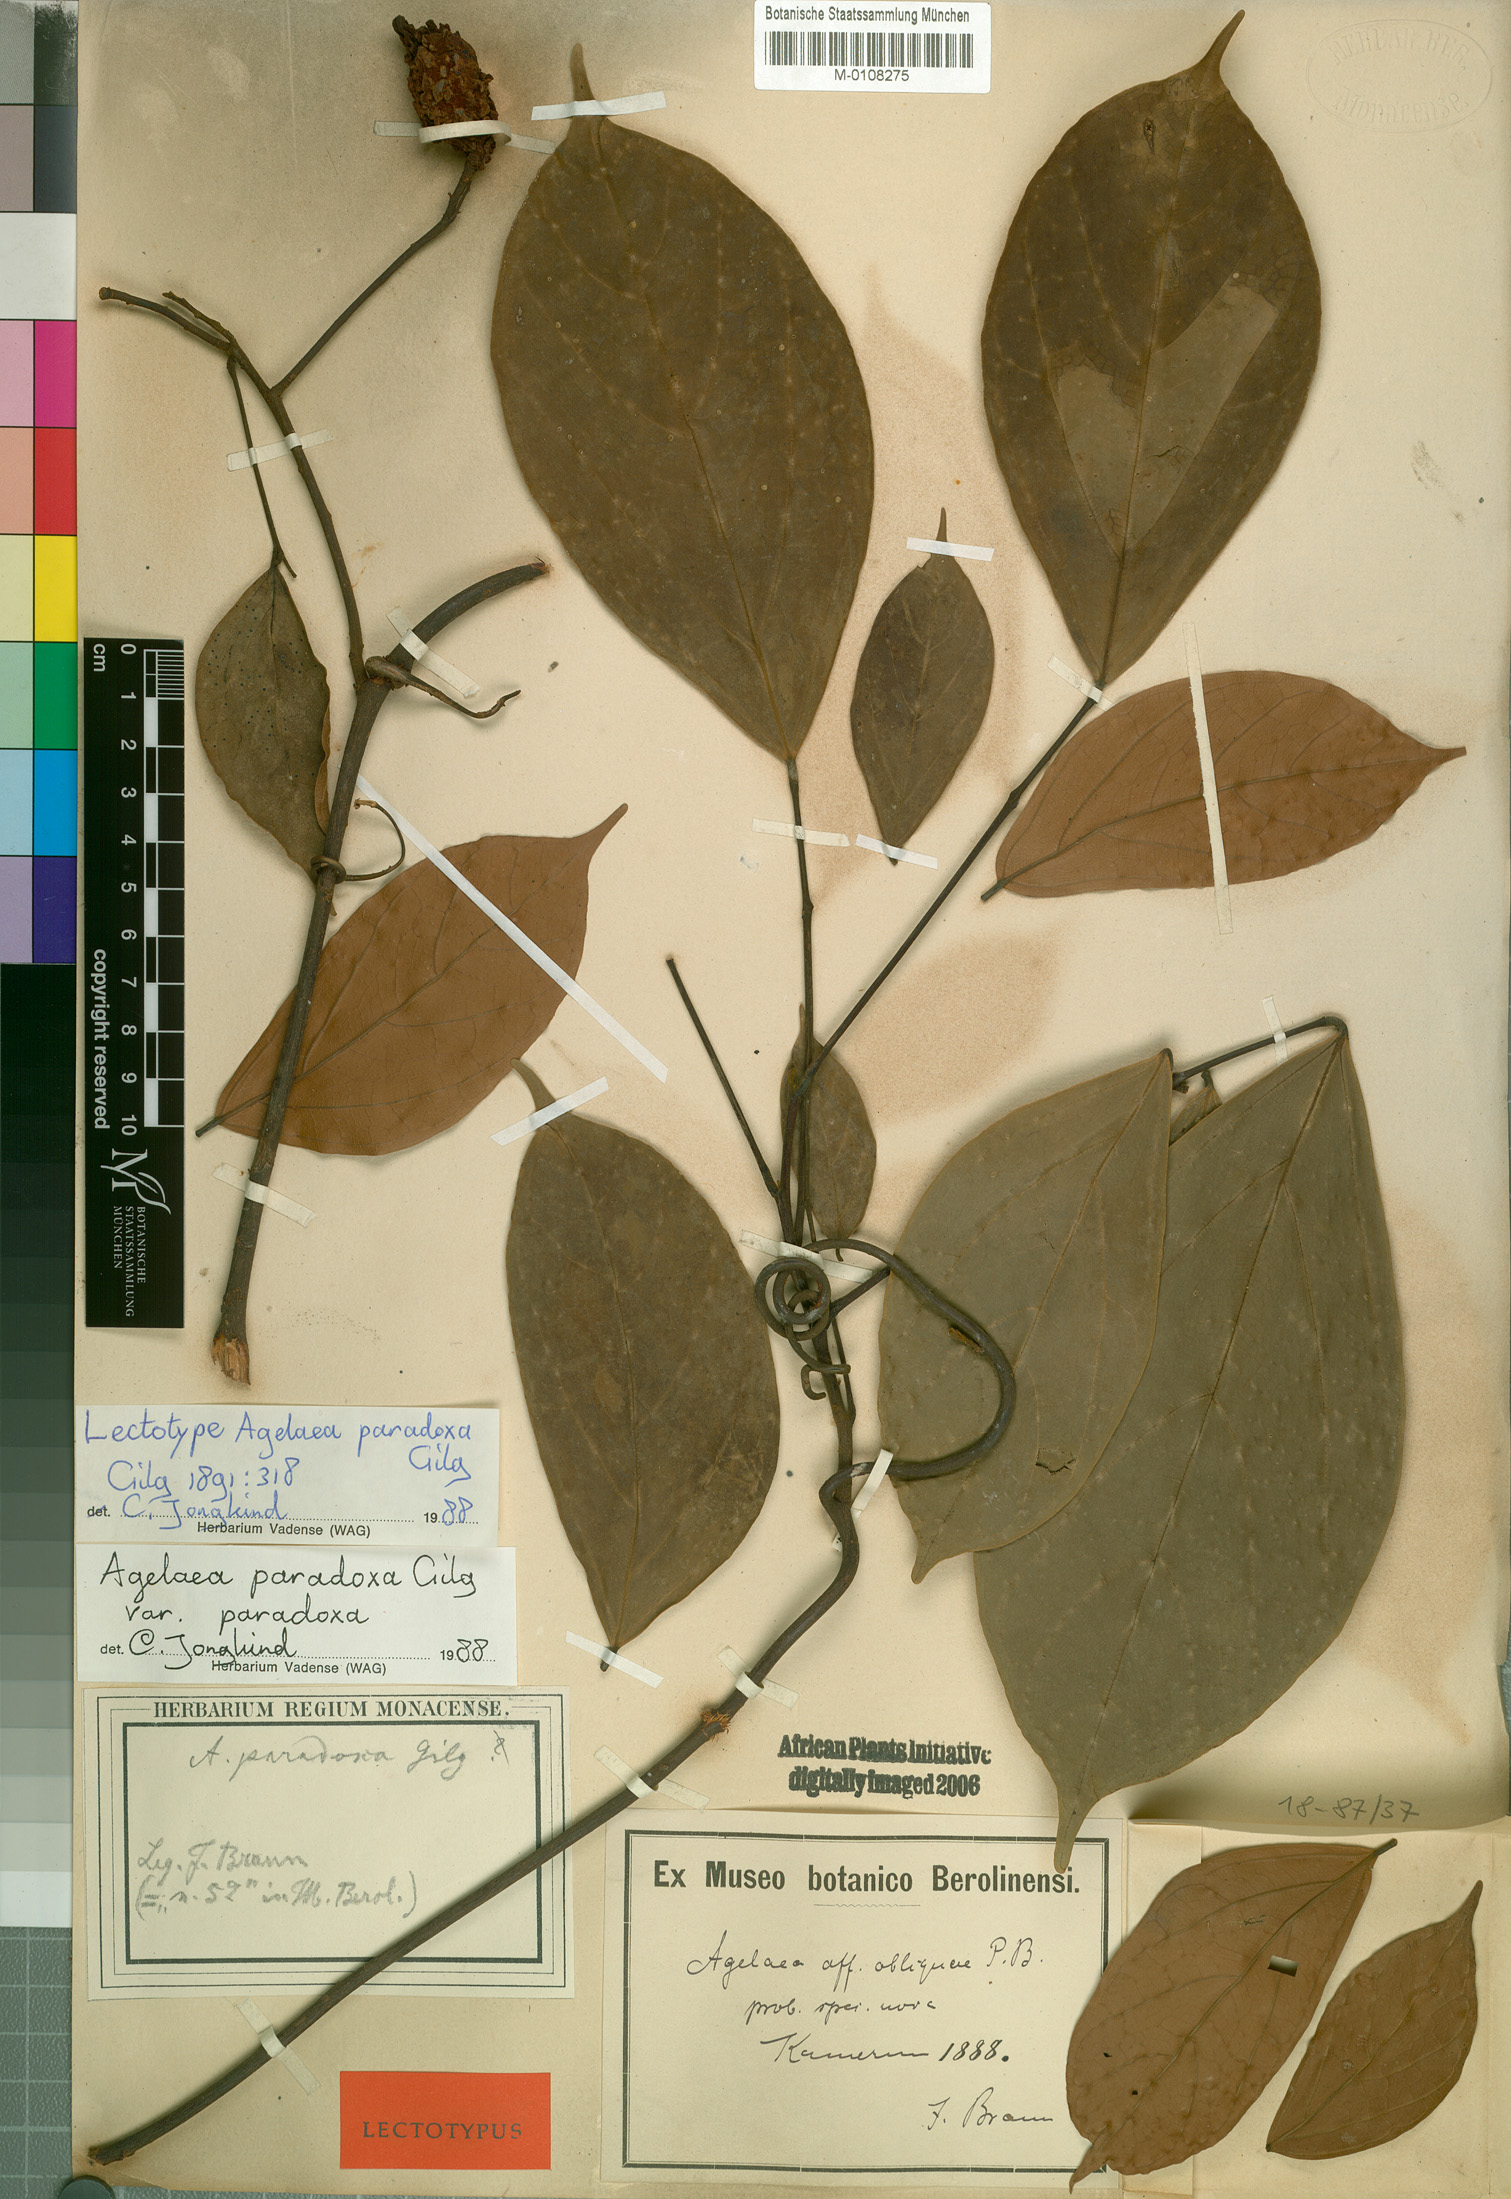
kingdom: Plantae
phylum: Tracheophyta
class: Magnoliopsida
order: Oxalidales
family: Connaraceae
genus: Castanola
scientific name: Castanola paradoxa
